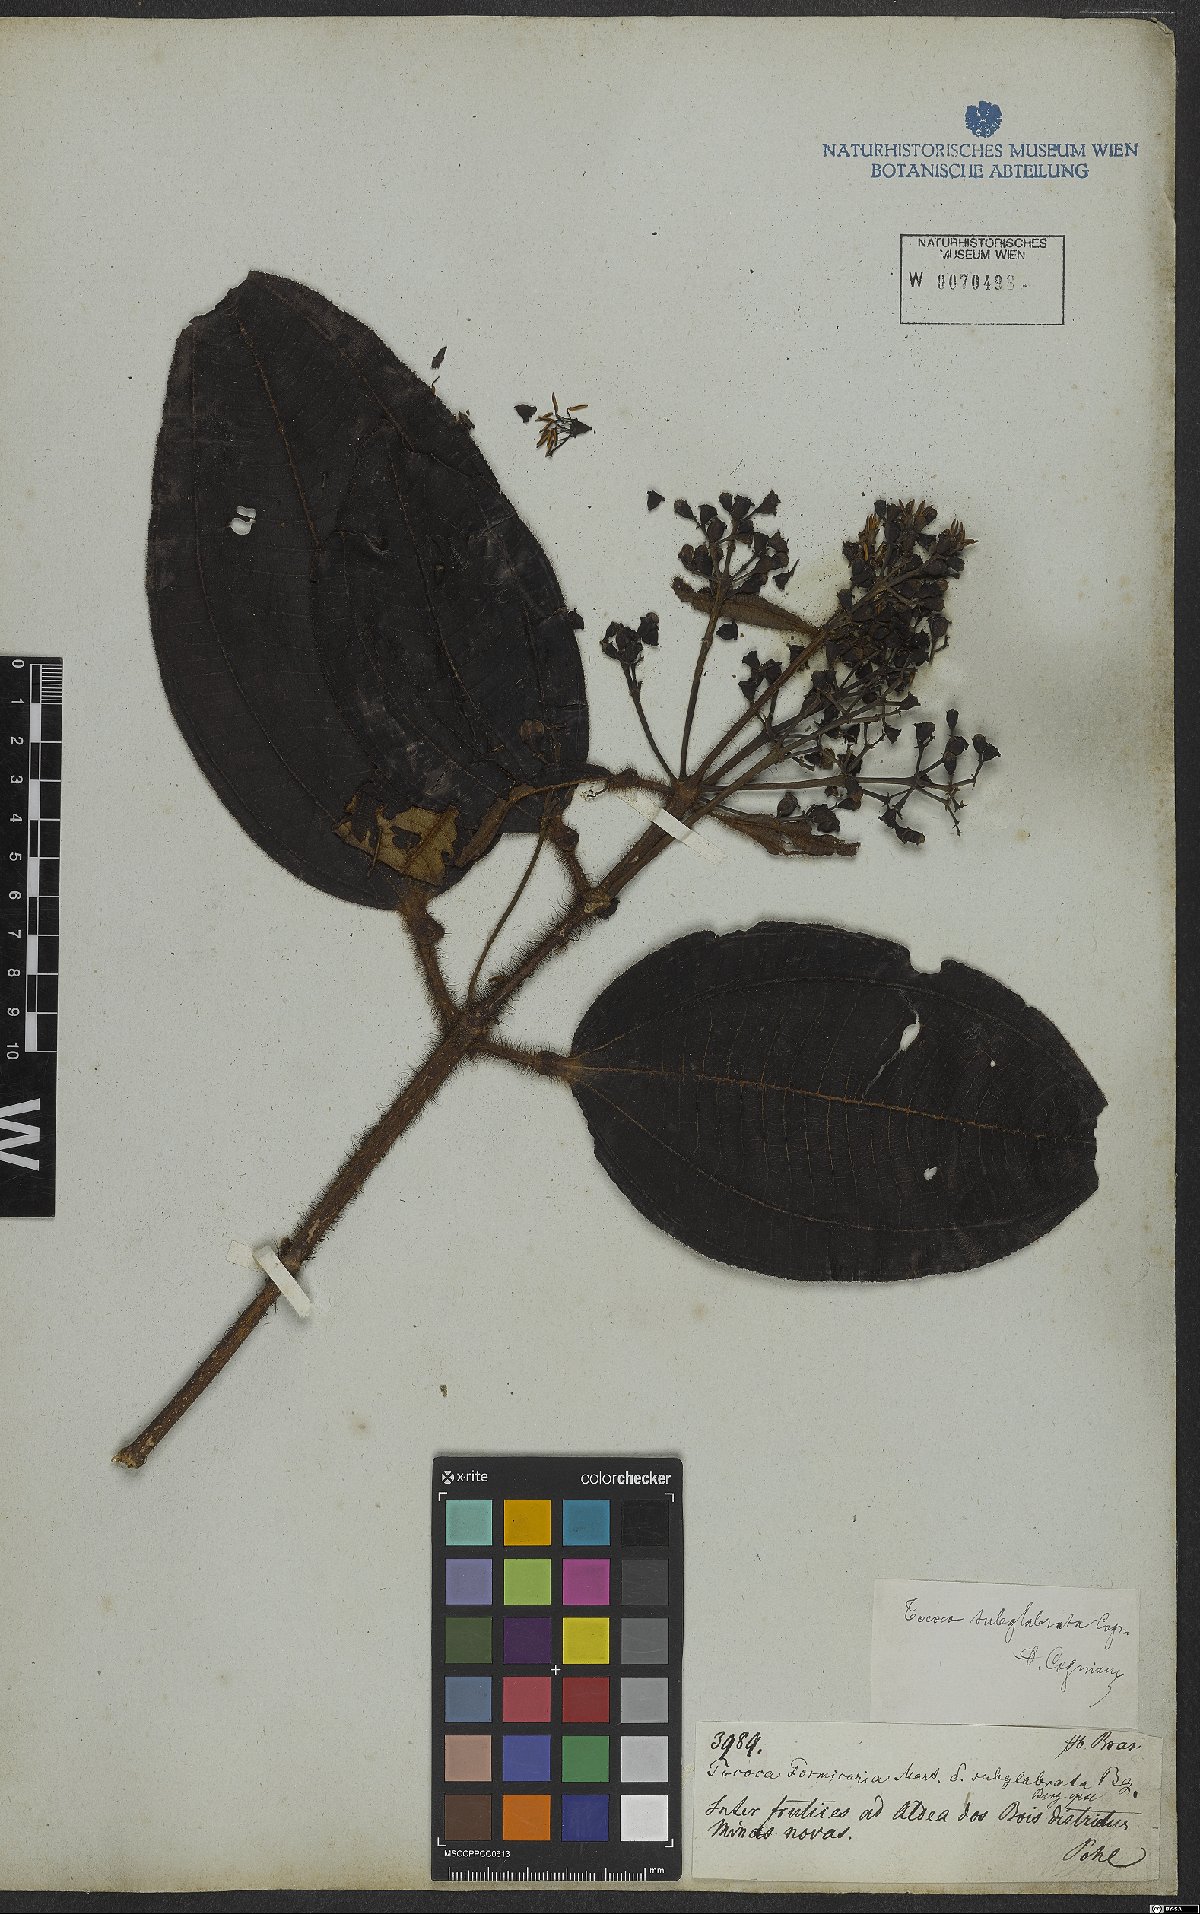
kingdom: Plantae
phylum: Tracheophyta
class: Magnoliopsida
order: Myrtales
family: Melastomataceae
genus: Miconia
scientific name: Miconia tococa
